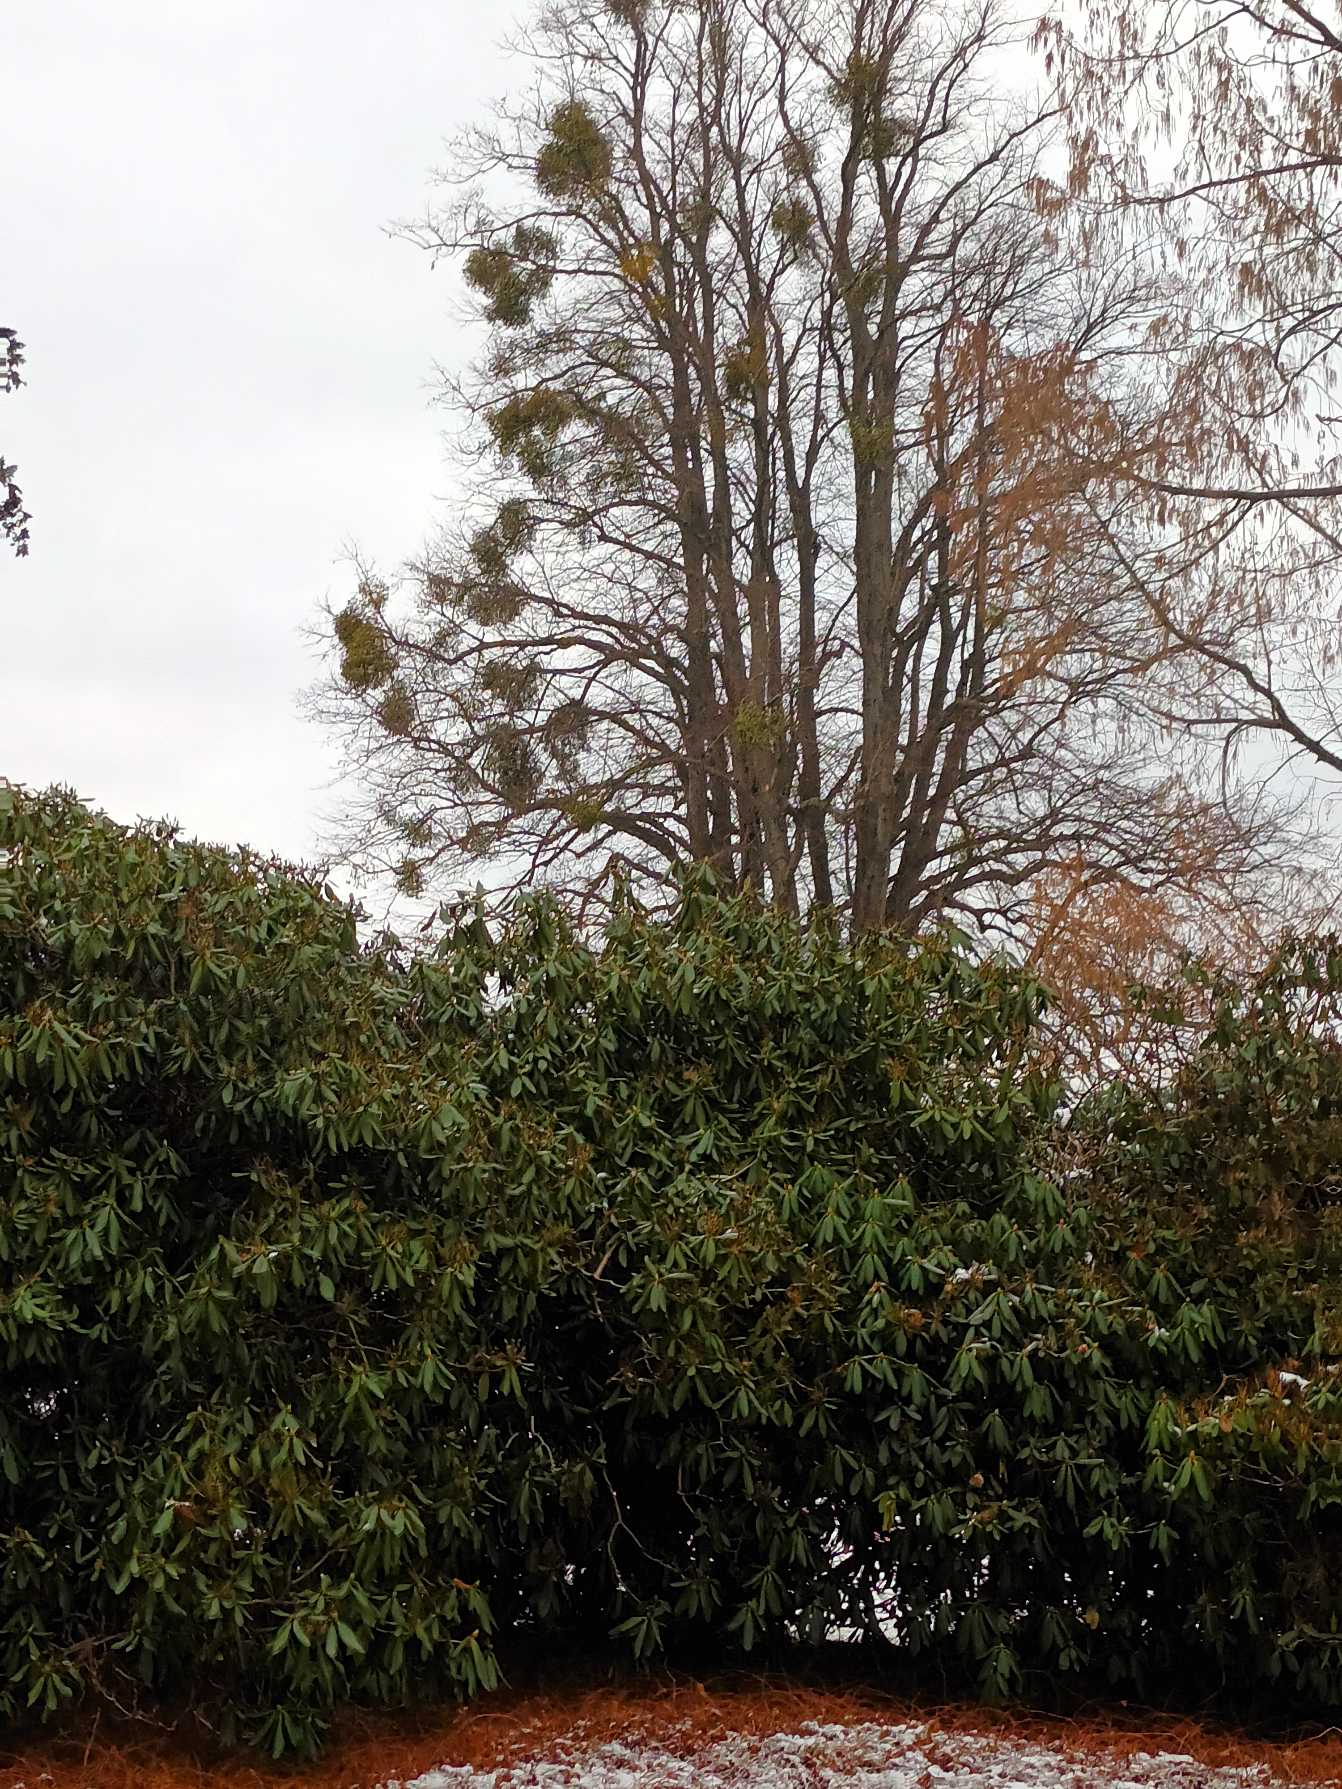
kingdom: Plantae
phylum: Tracheophyta
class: Magnoliopsida
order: Santalales
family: Viscaceae
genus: Viscum
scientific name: Viscum album
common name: Mistelten
